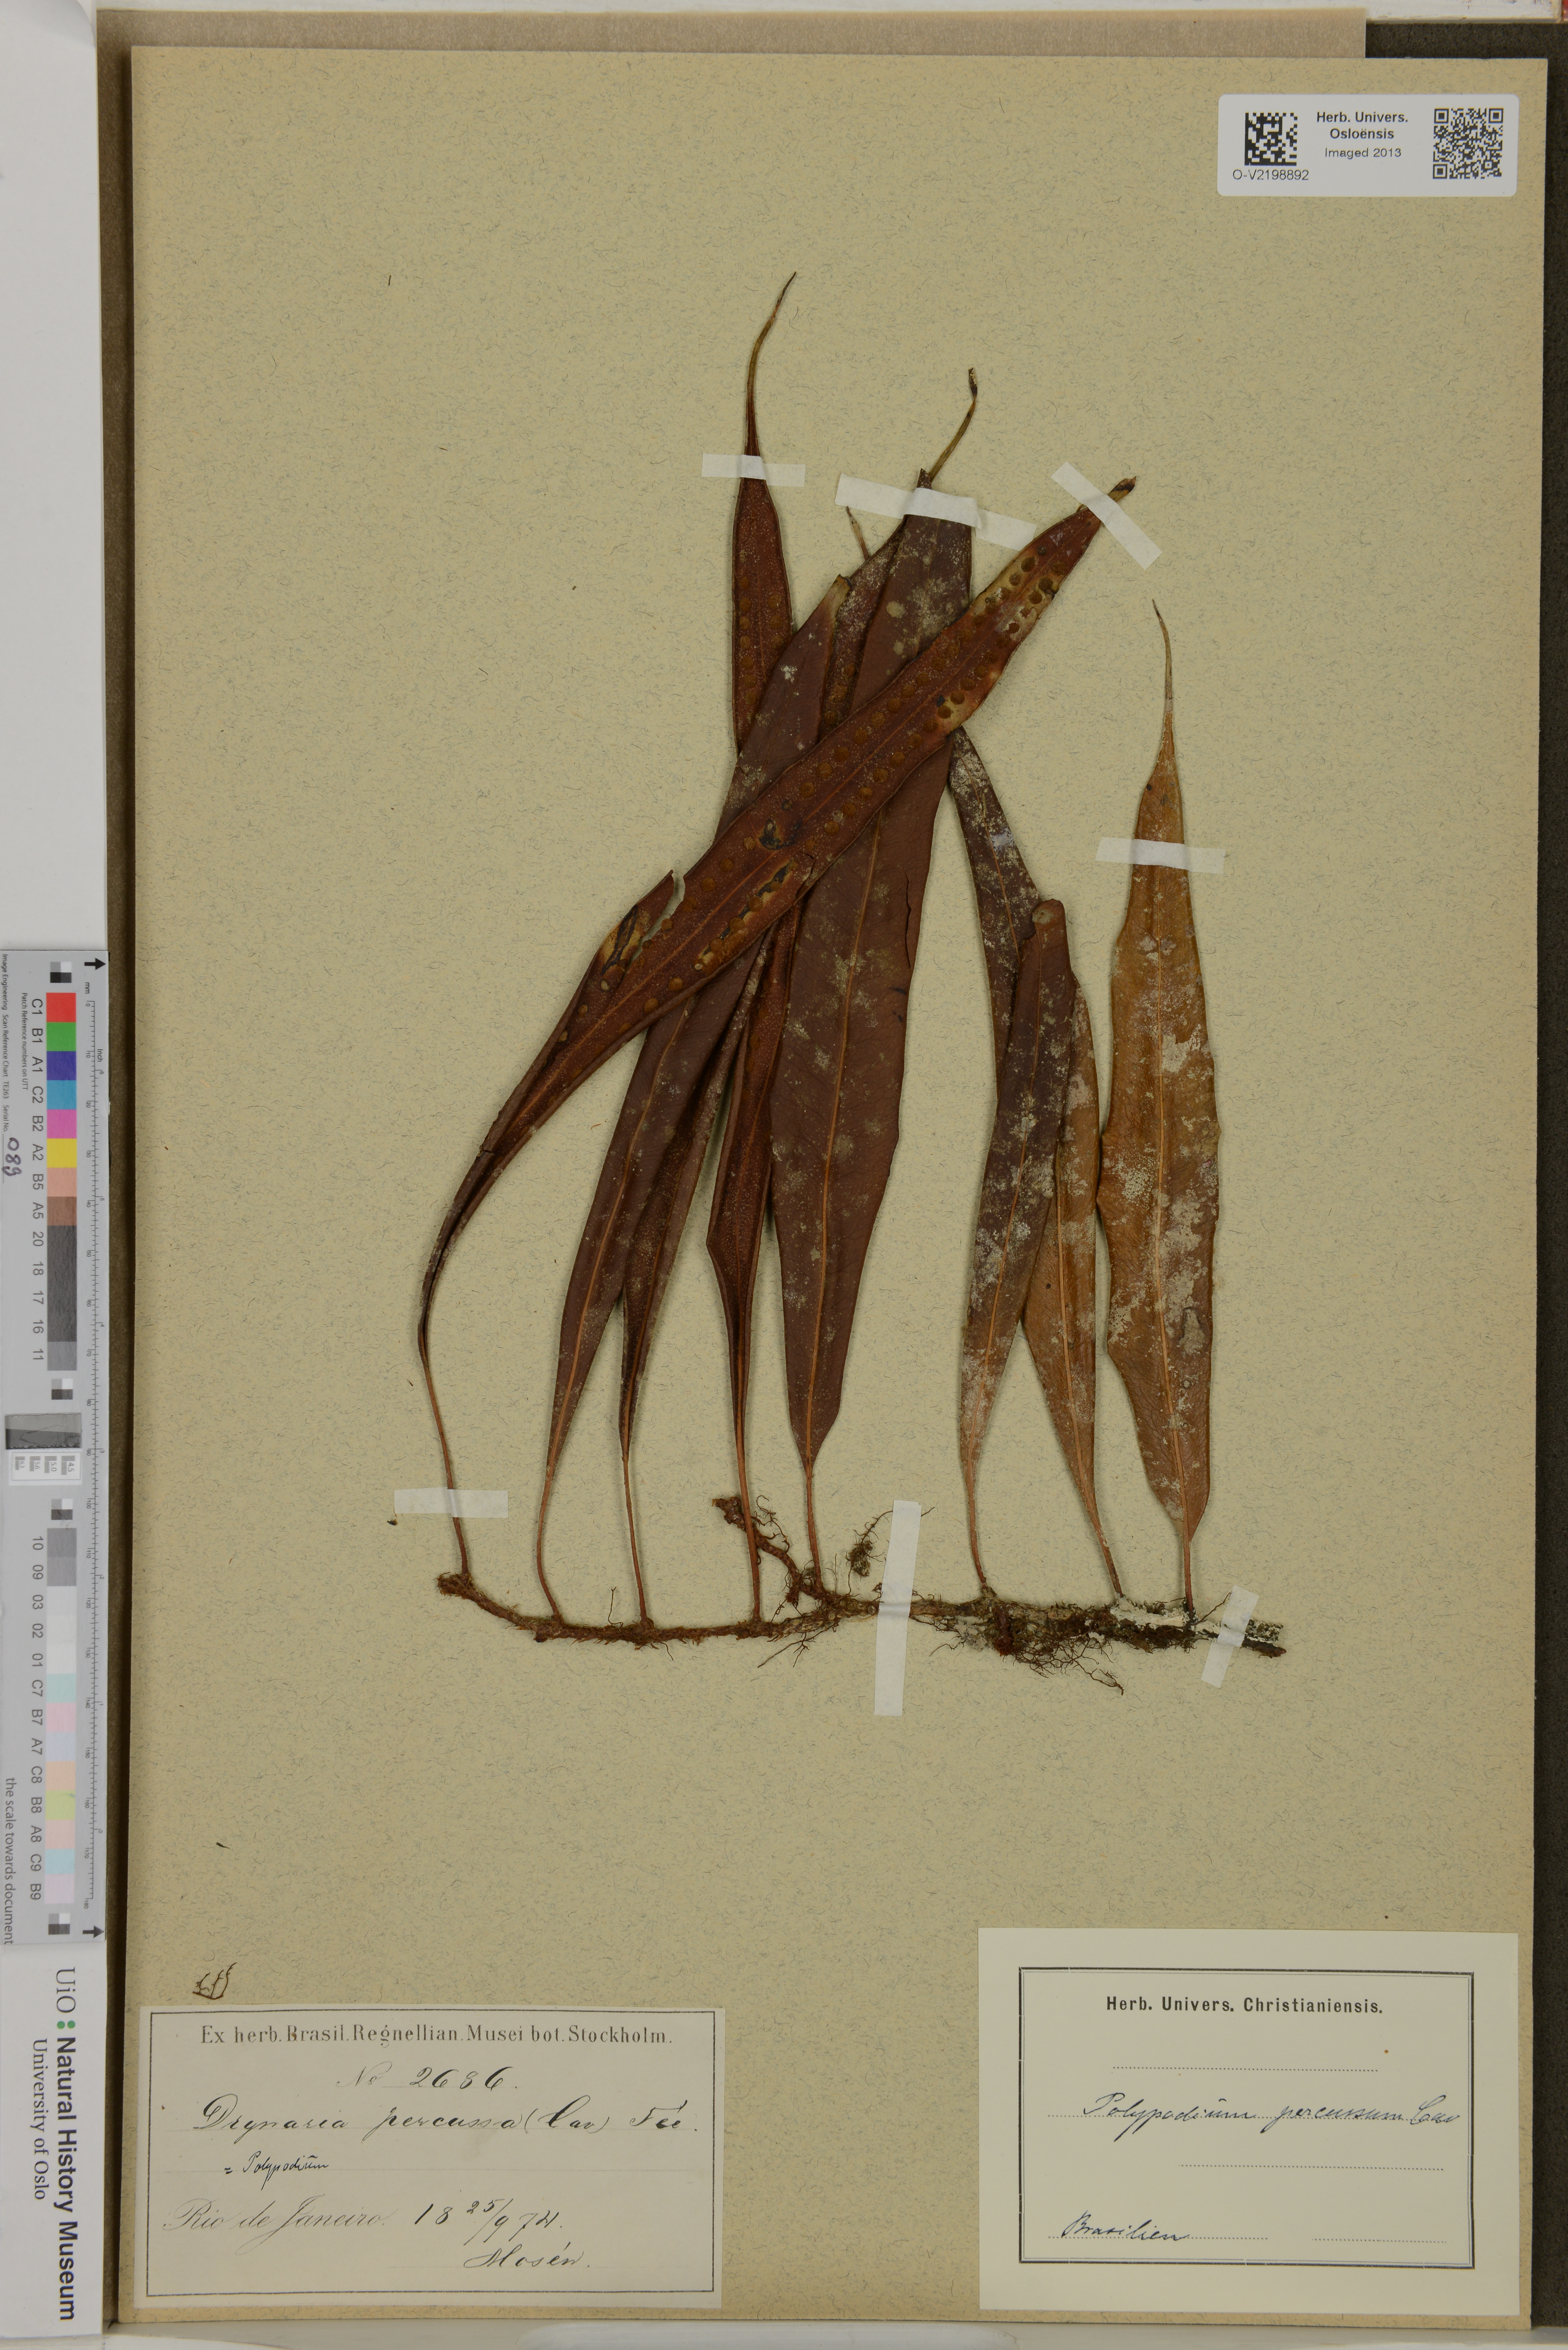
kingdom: Plantae
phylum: Tracheophyta
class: Polypodiopsida
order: Polypodiales
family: Polypodiaceae
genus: Microgramma
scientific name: Microgramma percussa
